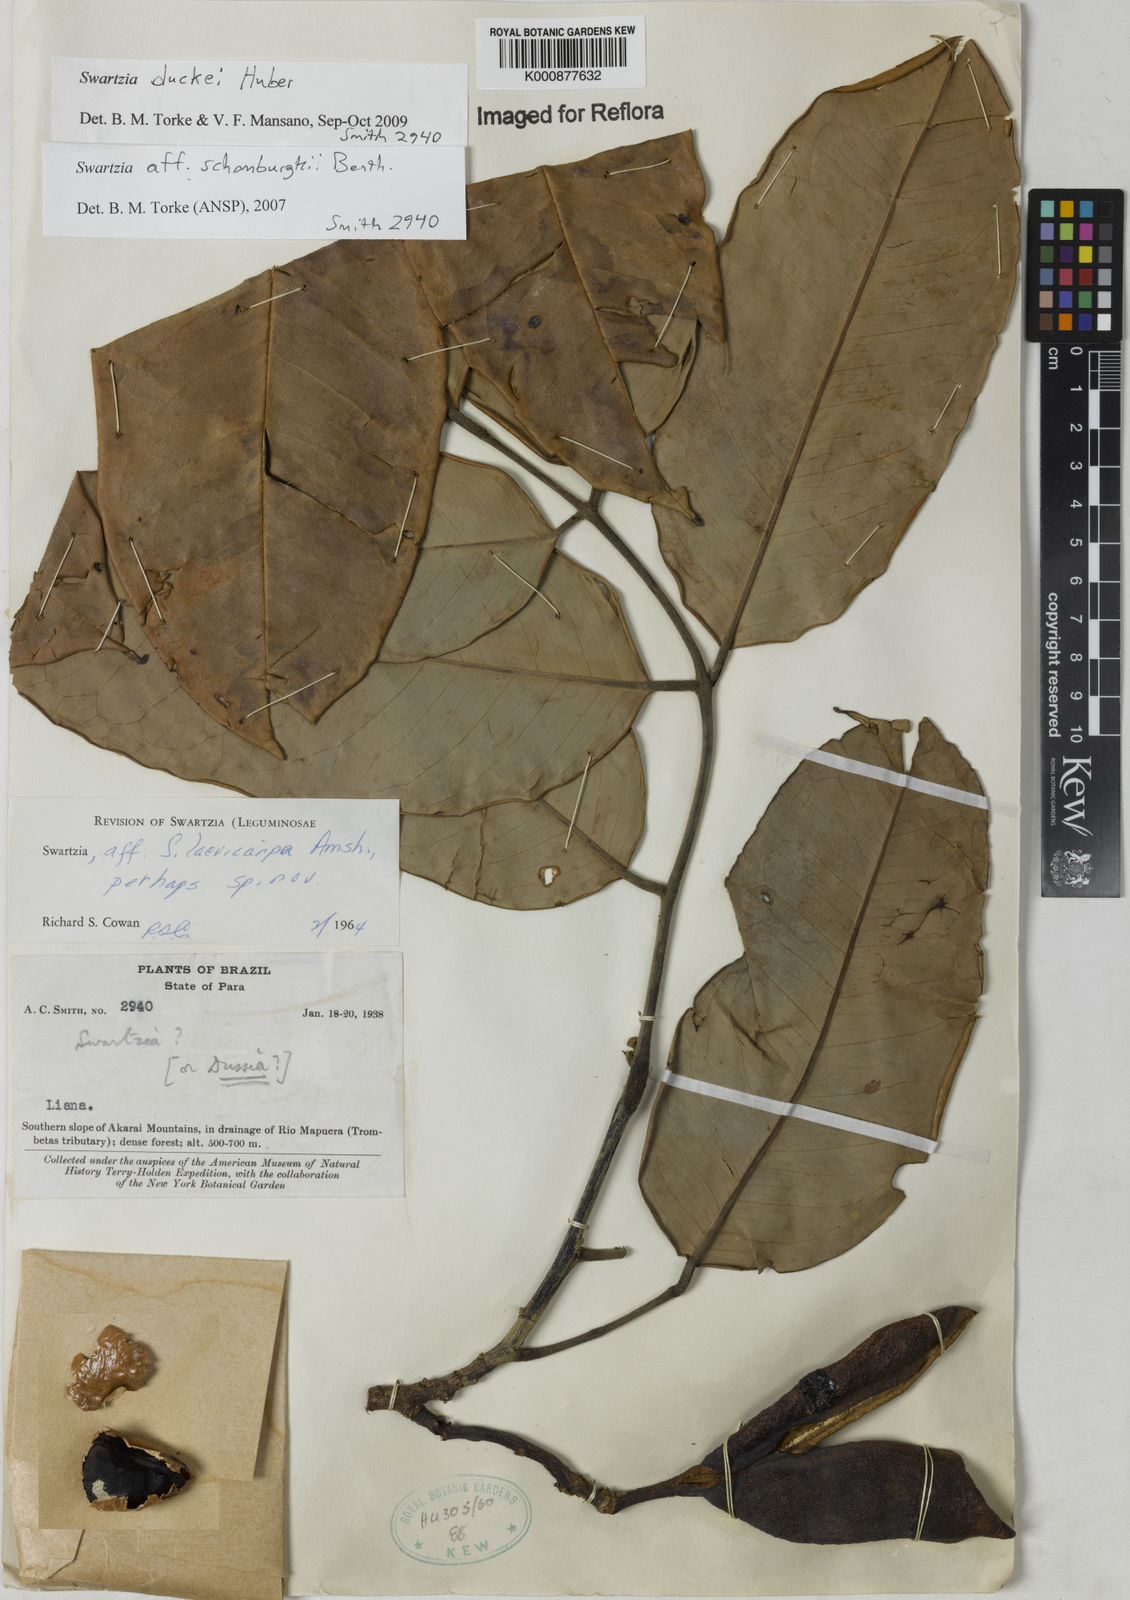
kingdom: Plantae
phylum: Tracheophyta
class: Magnoliopsida
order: Fabales
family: Fabaceae
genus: Swartzia
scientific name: Swartzia duckei
